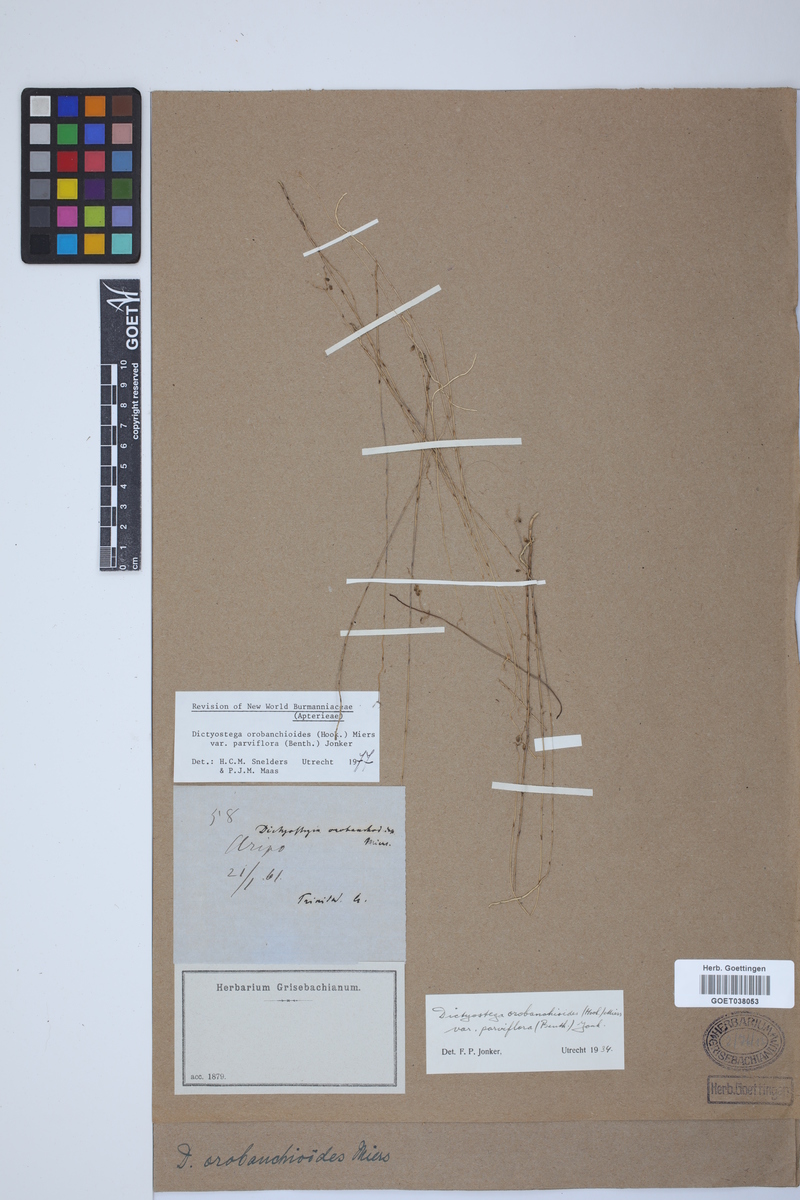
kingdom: Plantae
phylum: Tracheophyta
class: Liliopsida
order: Dioscoreales
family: Burmanniaceae
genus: Dictyostega
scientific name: Dictyostega orobanchoides
